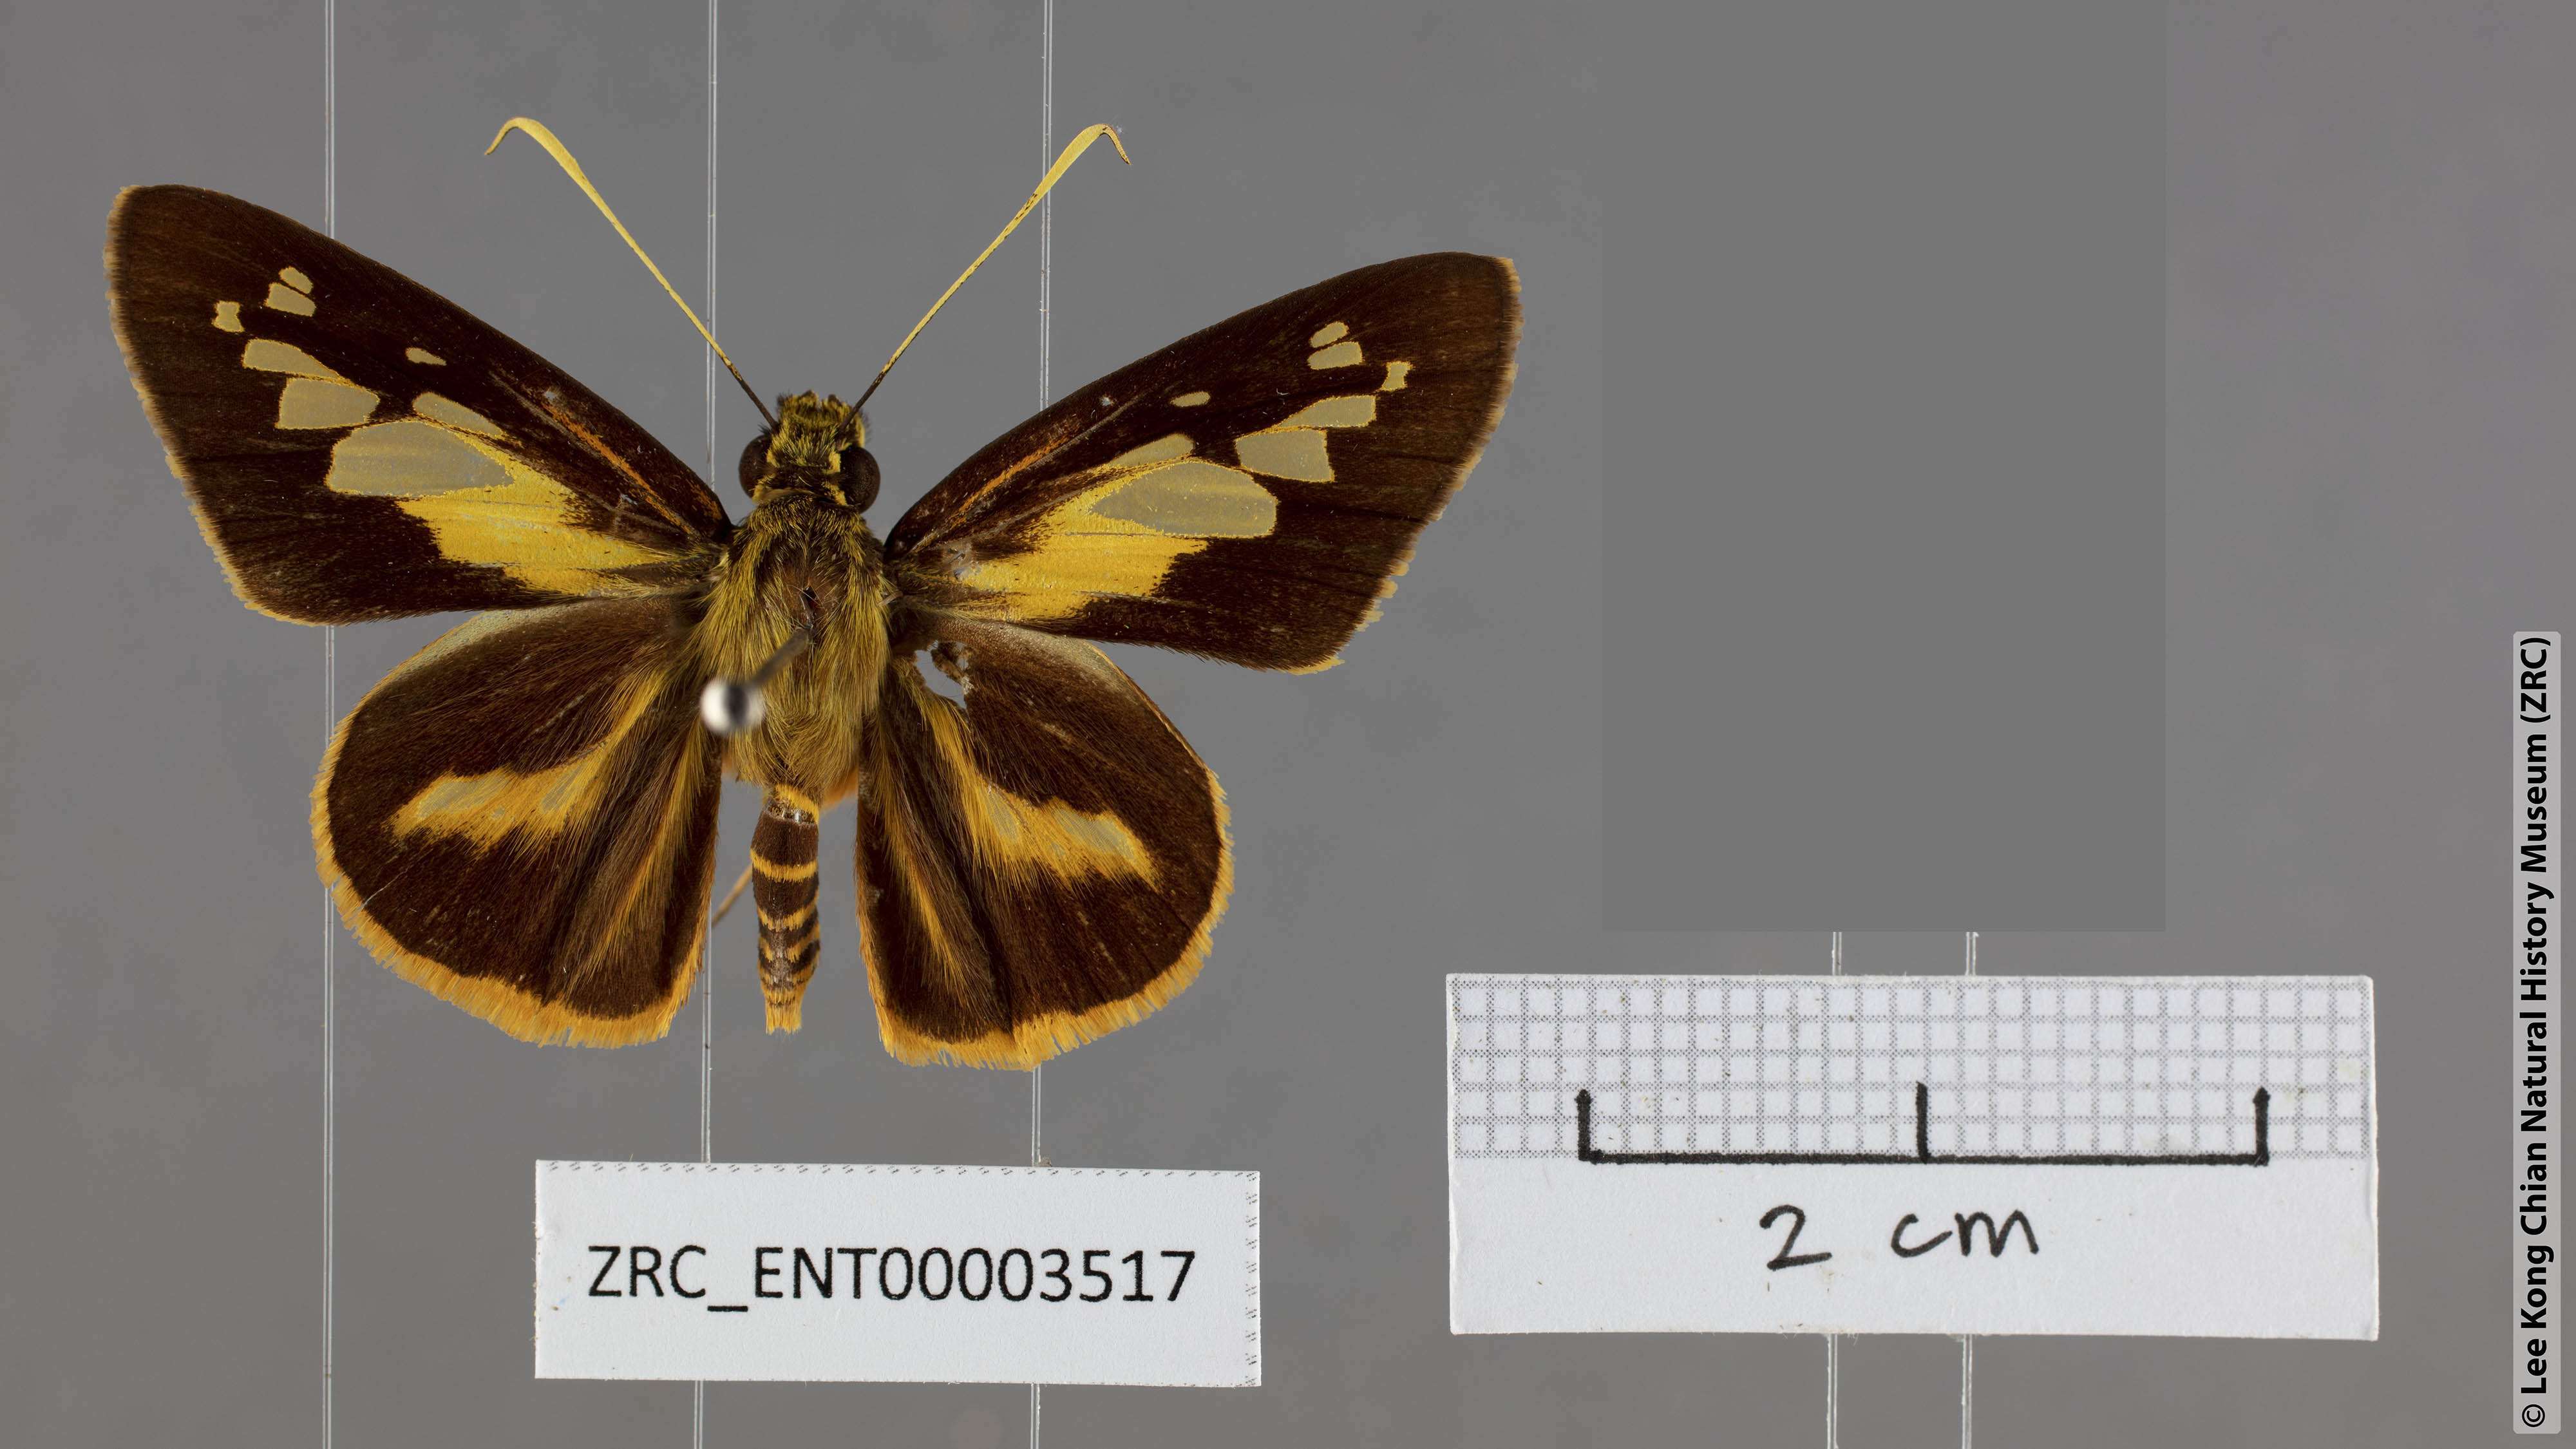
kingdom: Animalia
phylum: Arthropoda
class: Insecta
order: Lepidoptera
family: Hesperiidae
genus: Pyroneura
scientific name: Pyroneura niasana
